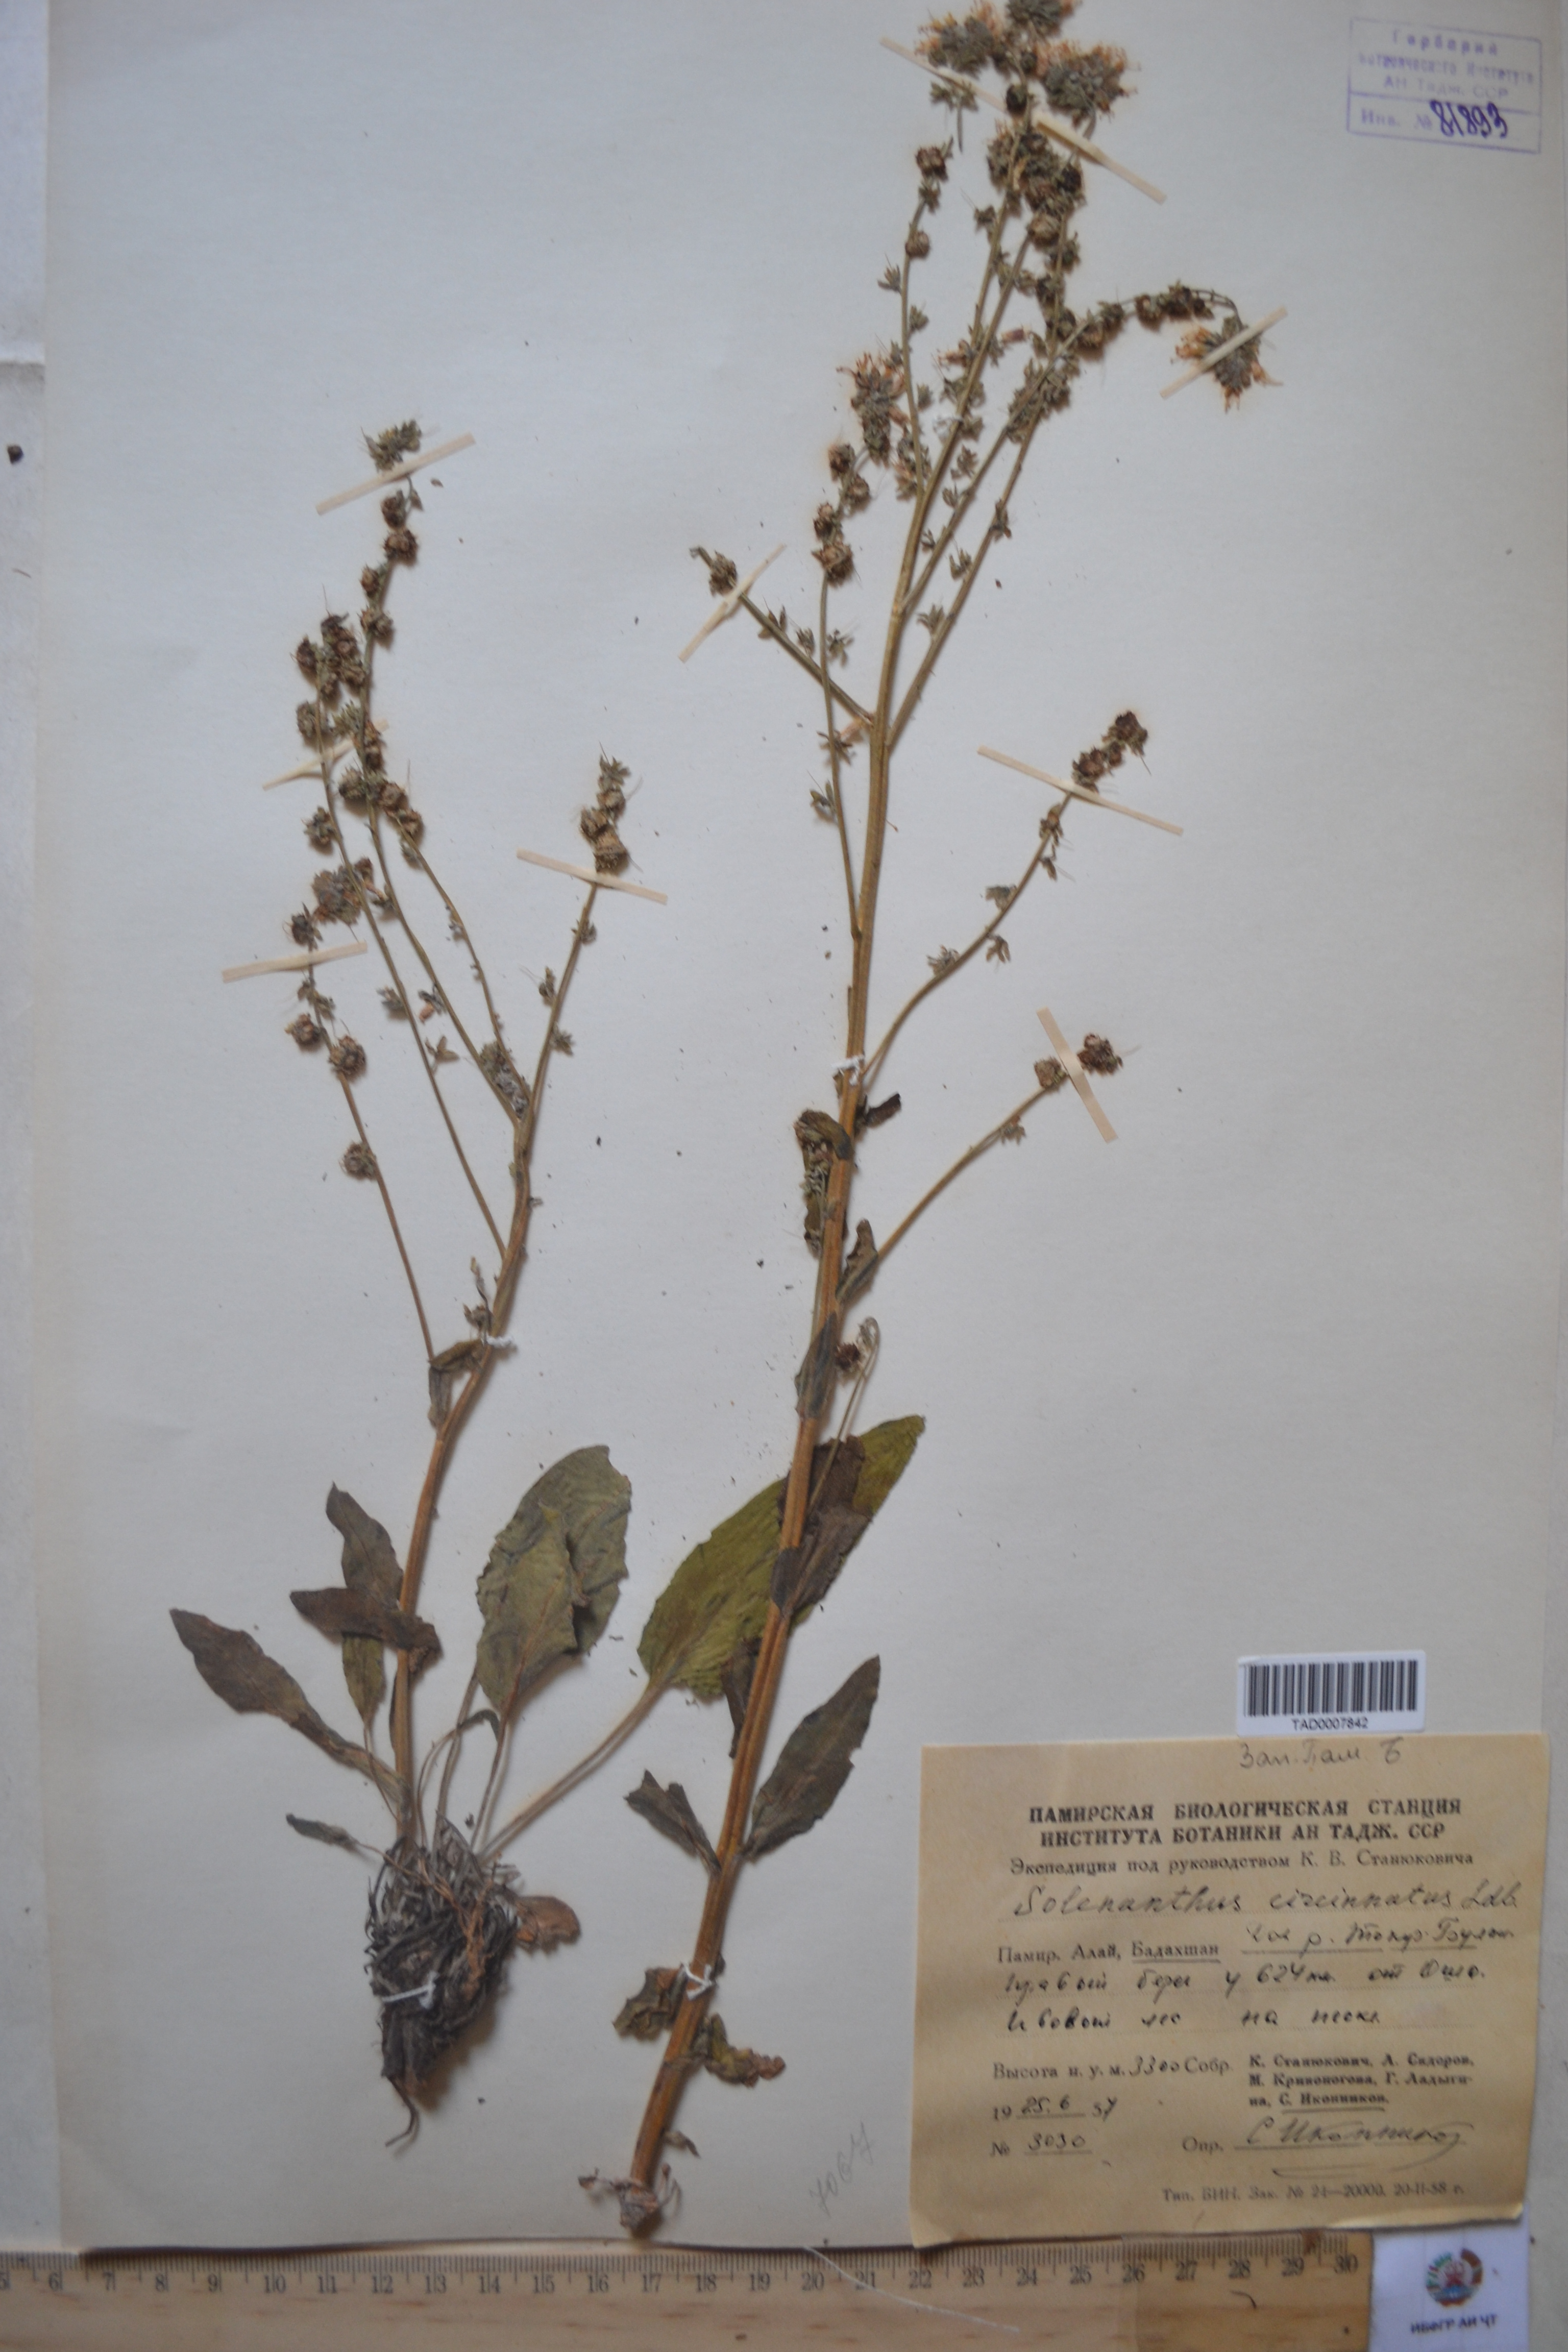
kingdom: Plantae
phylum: Tracheophyta
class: Magnoliopsida
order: Boraginales
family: Boraginaceae
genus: Solenanthus
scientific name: Solenanthus circinnatus
